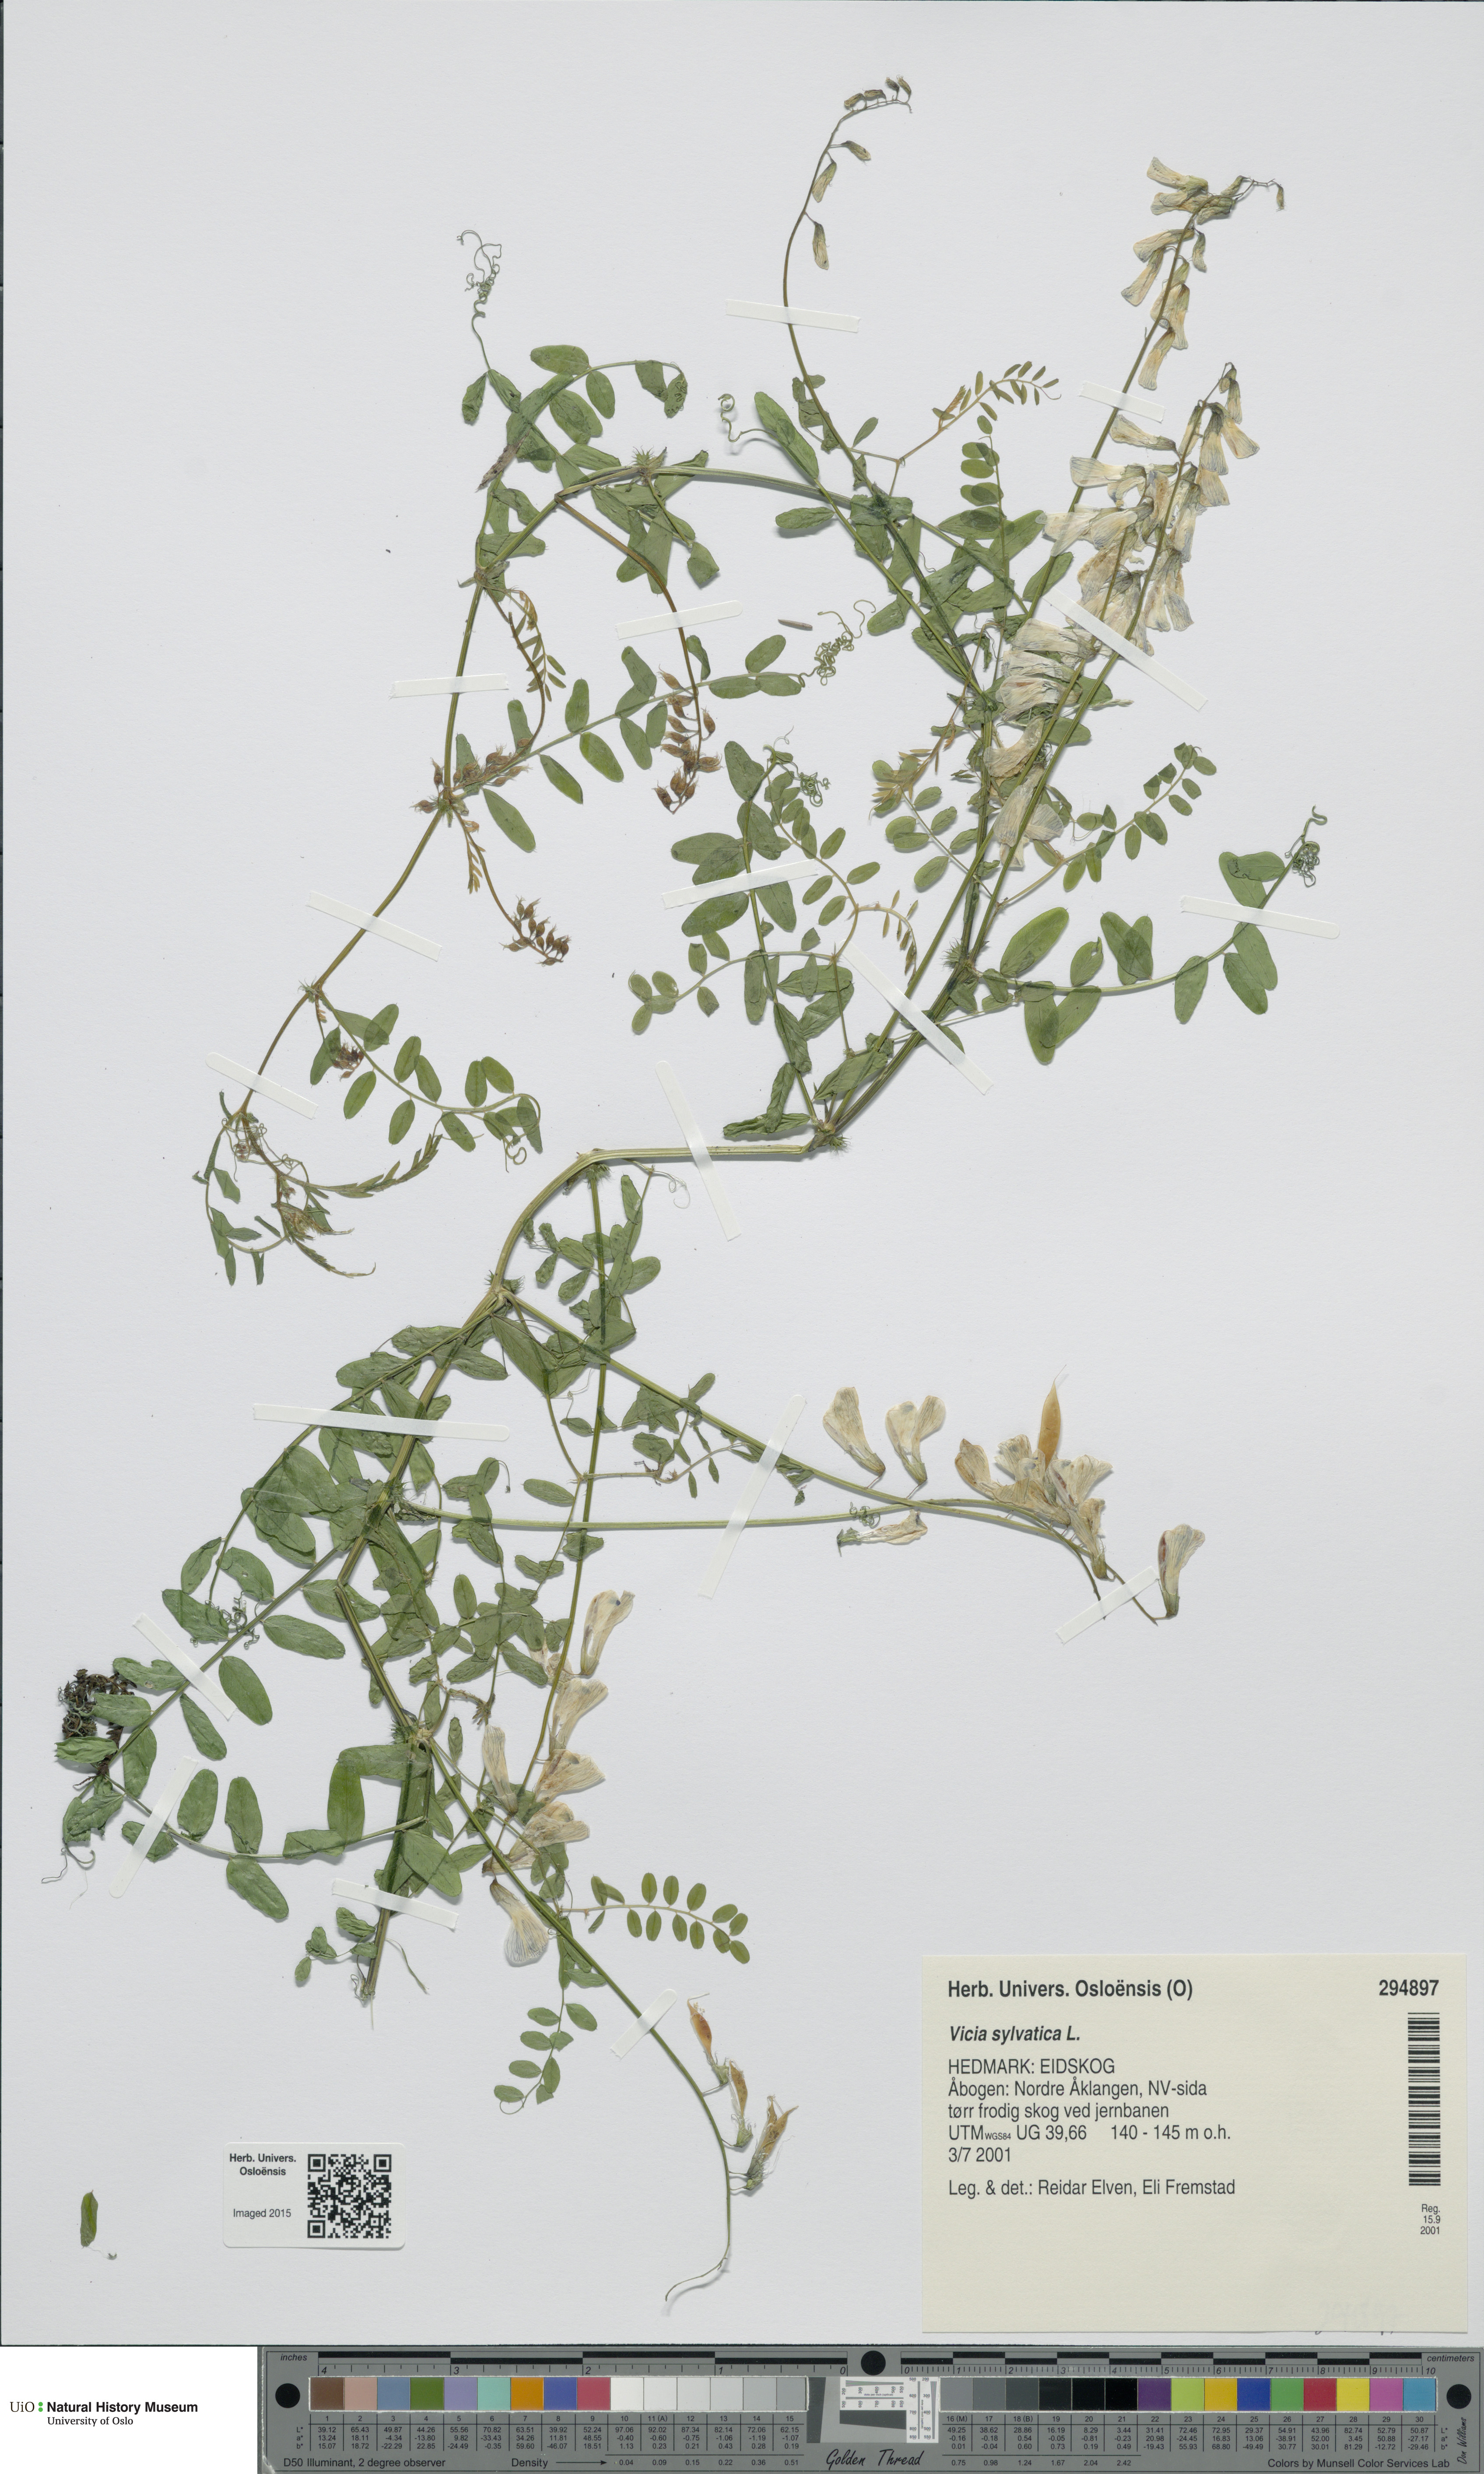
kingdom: Plantae
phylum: Tracheophyta
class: Magnoliopsida
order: Fabales
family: Fabaceae
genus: Vicia
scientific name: Vicia sylvatica
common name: Wood vetch
